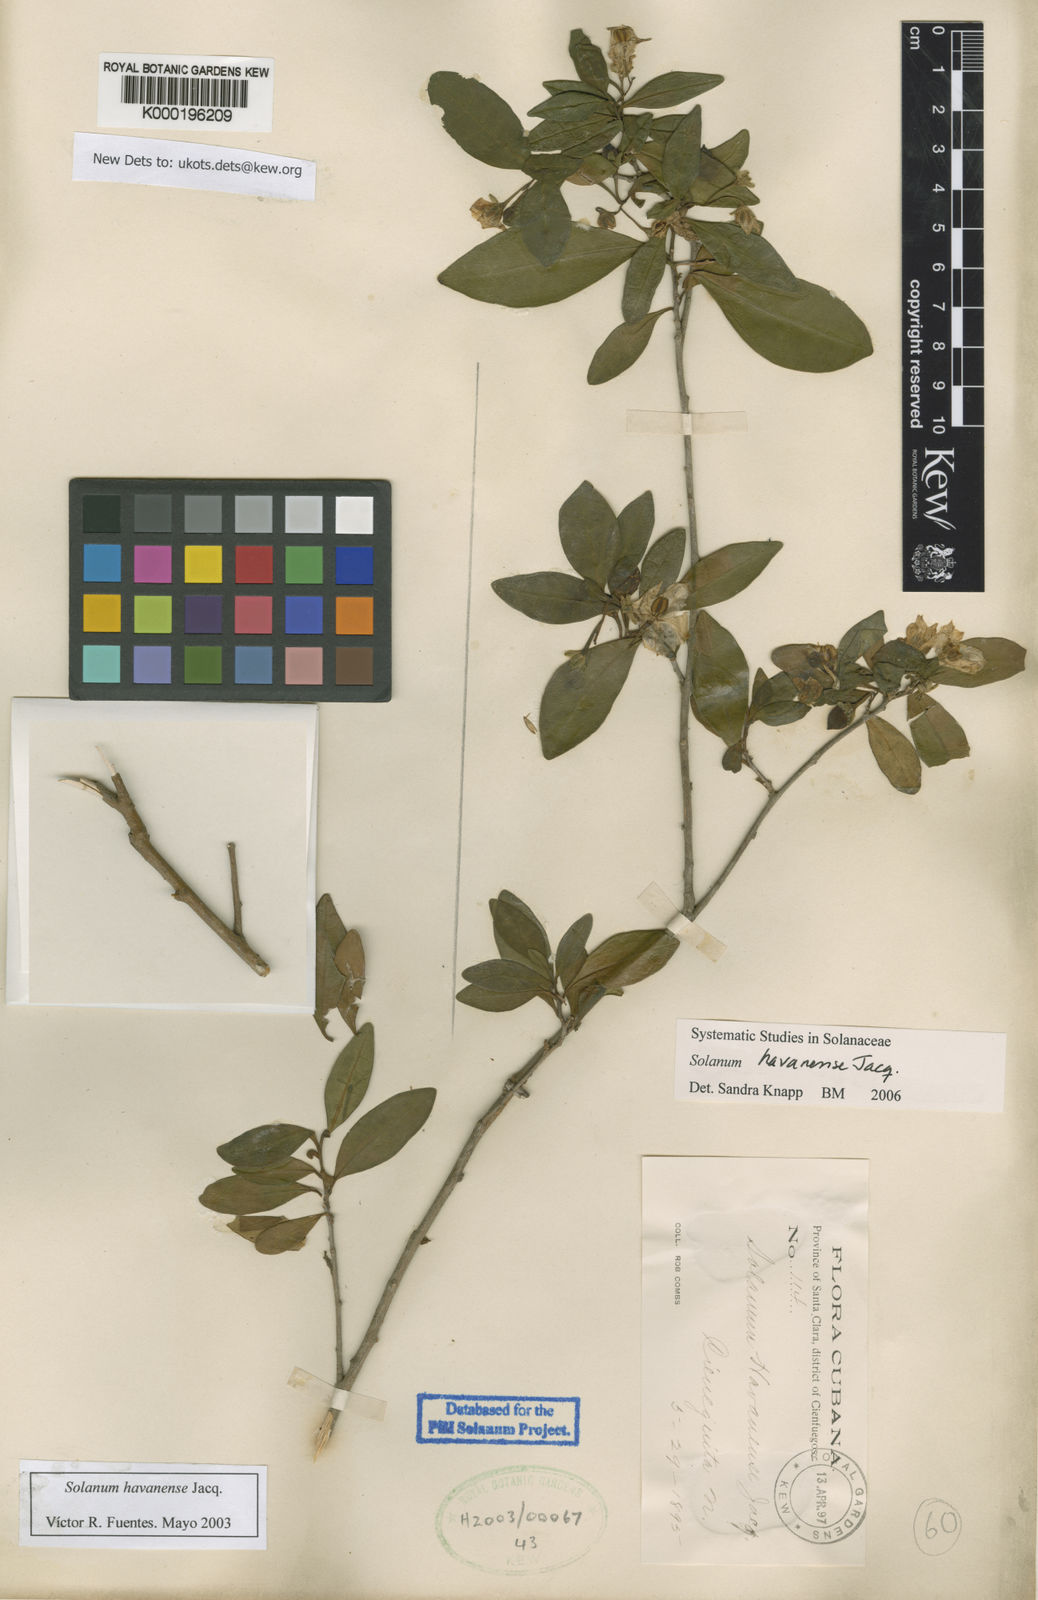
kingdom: Plantae
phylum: Tracheophyta
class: Magnoliopsida
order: Solanales
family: Solanaceae
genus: Solanum
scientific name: Solanum havanense
